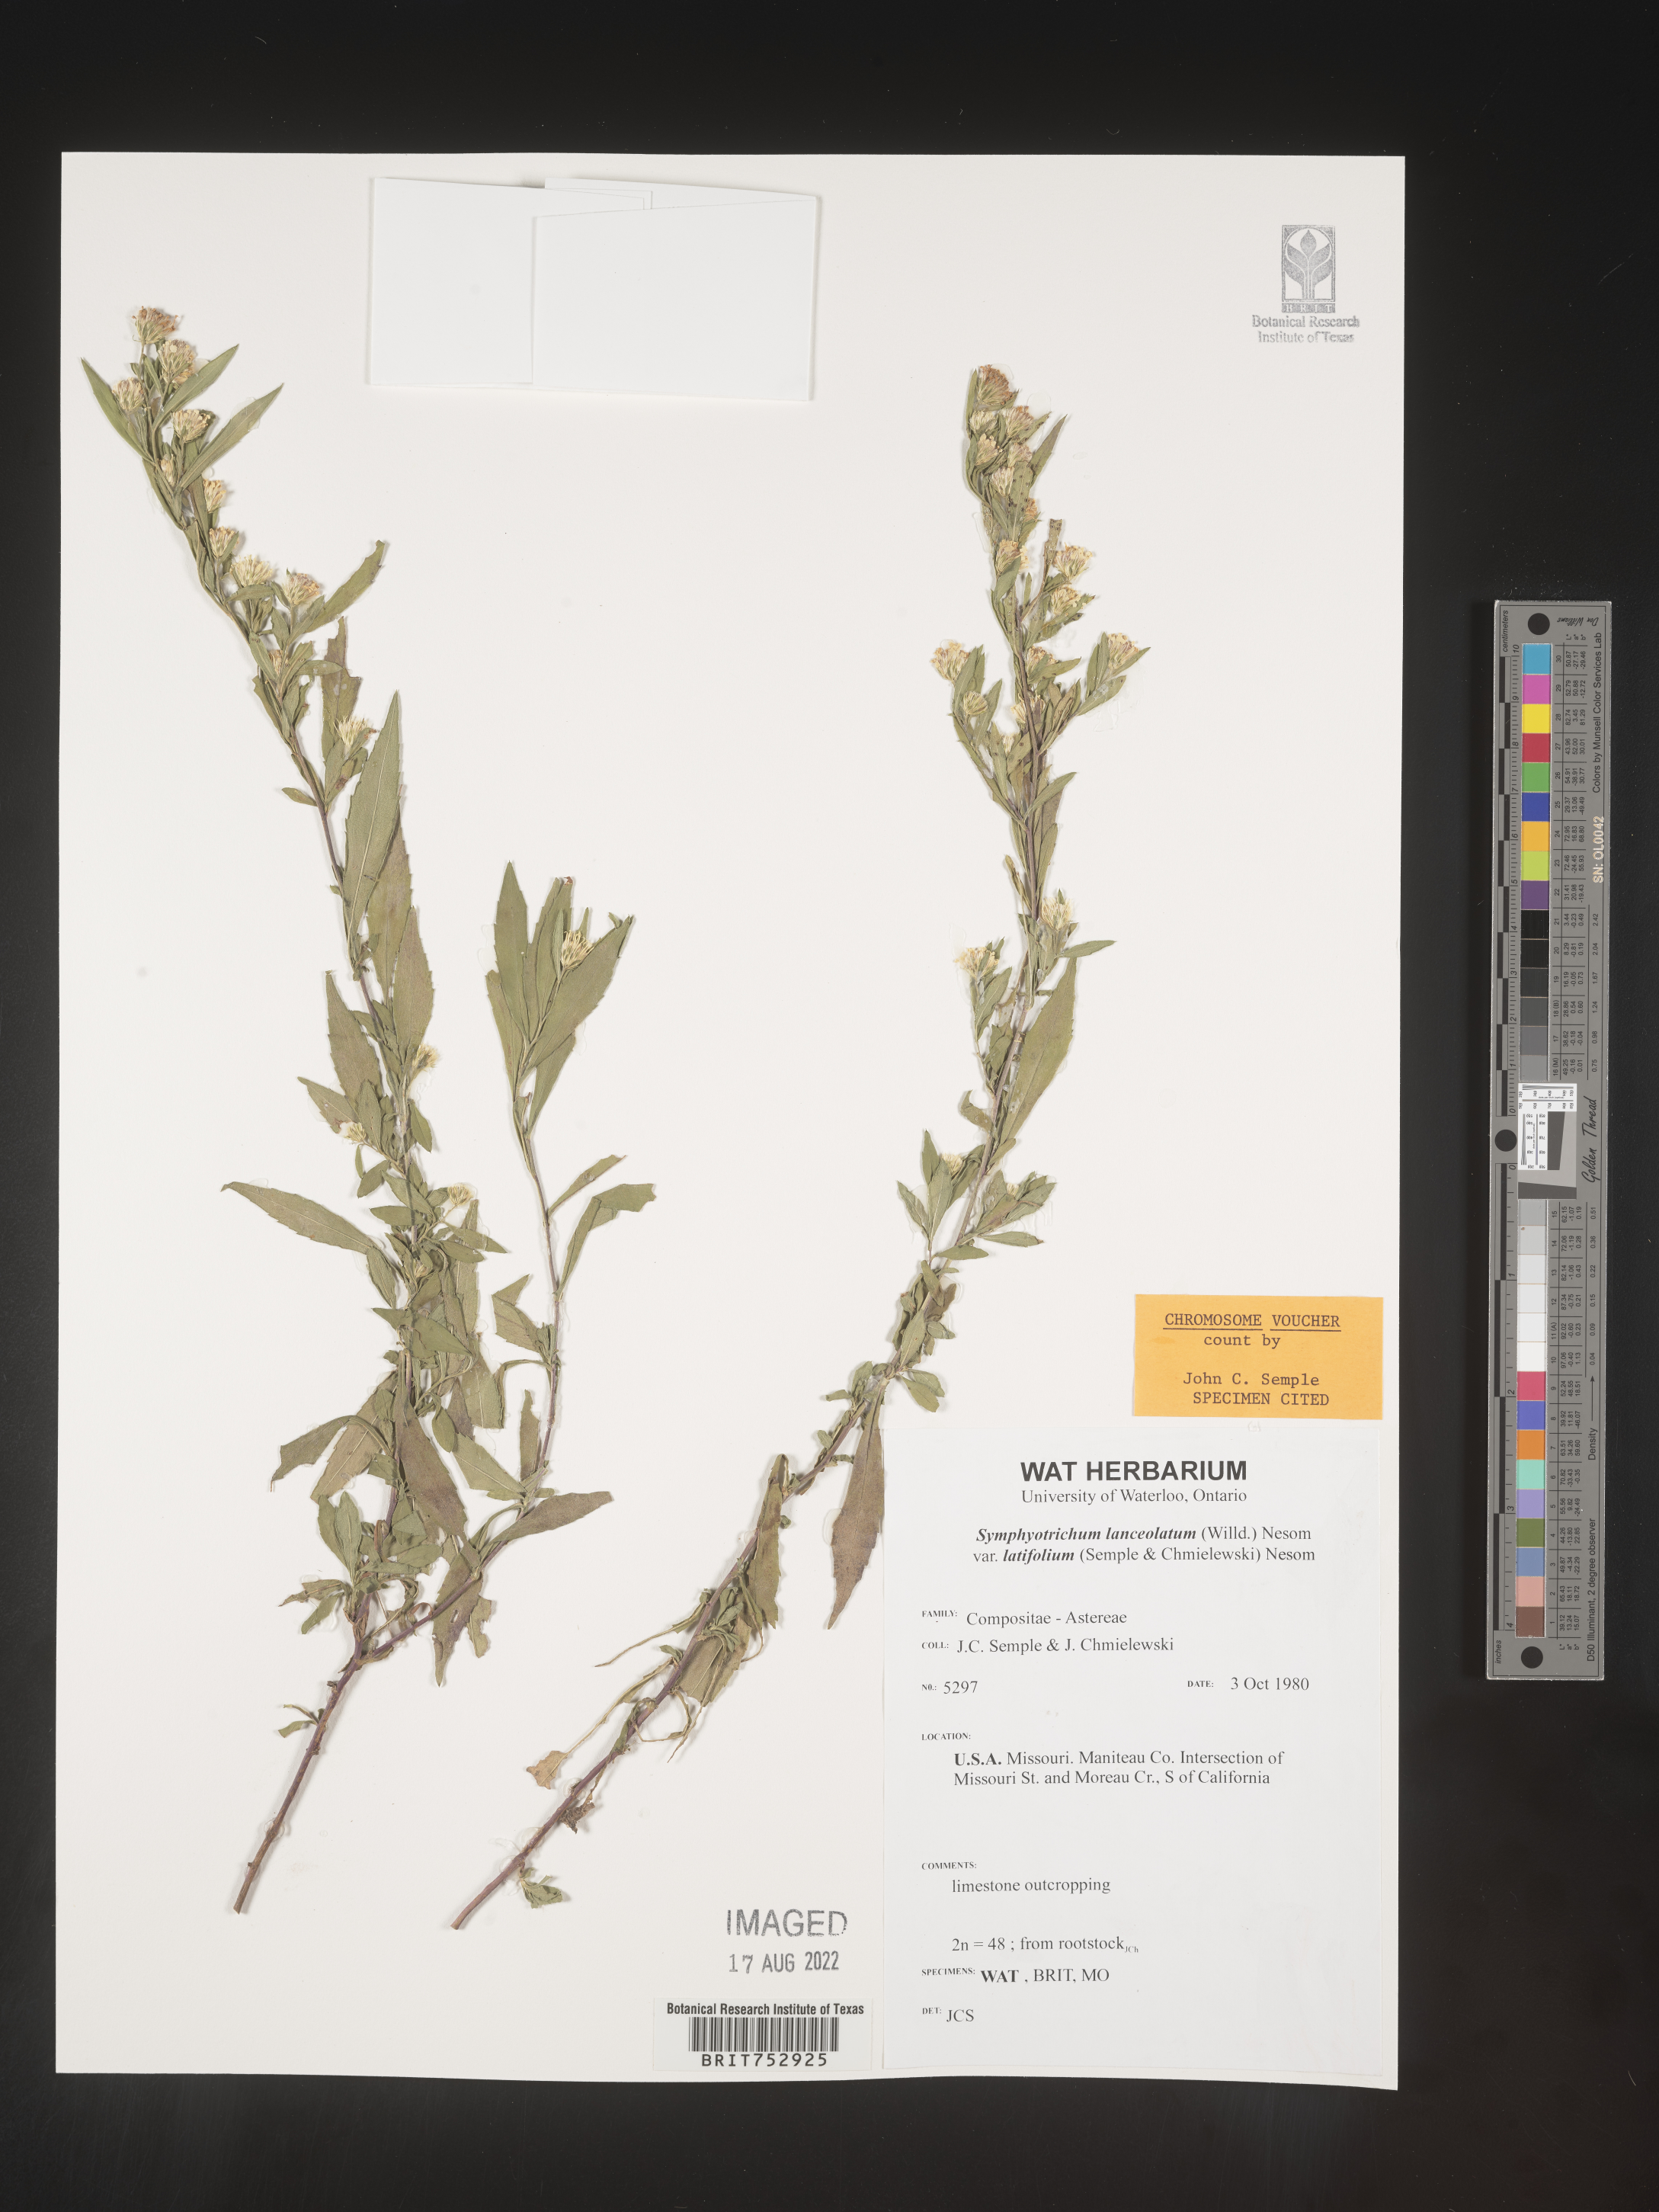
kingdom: Plantae
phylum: Tracheophyta
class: Magnoliopsida
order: Asterales
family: Asteraceae
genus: Symphyotrichum
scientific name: Symphyotrichum lanceolatum
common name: Panicled aster
